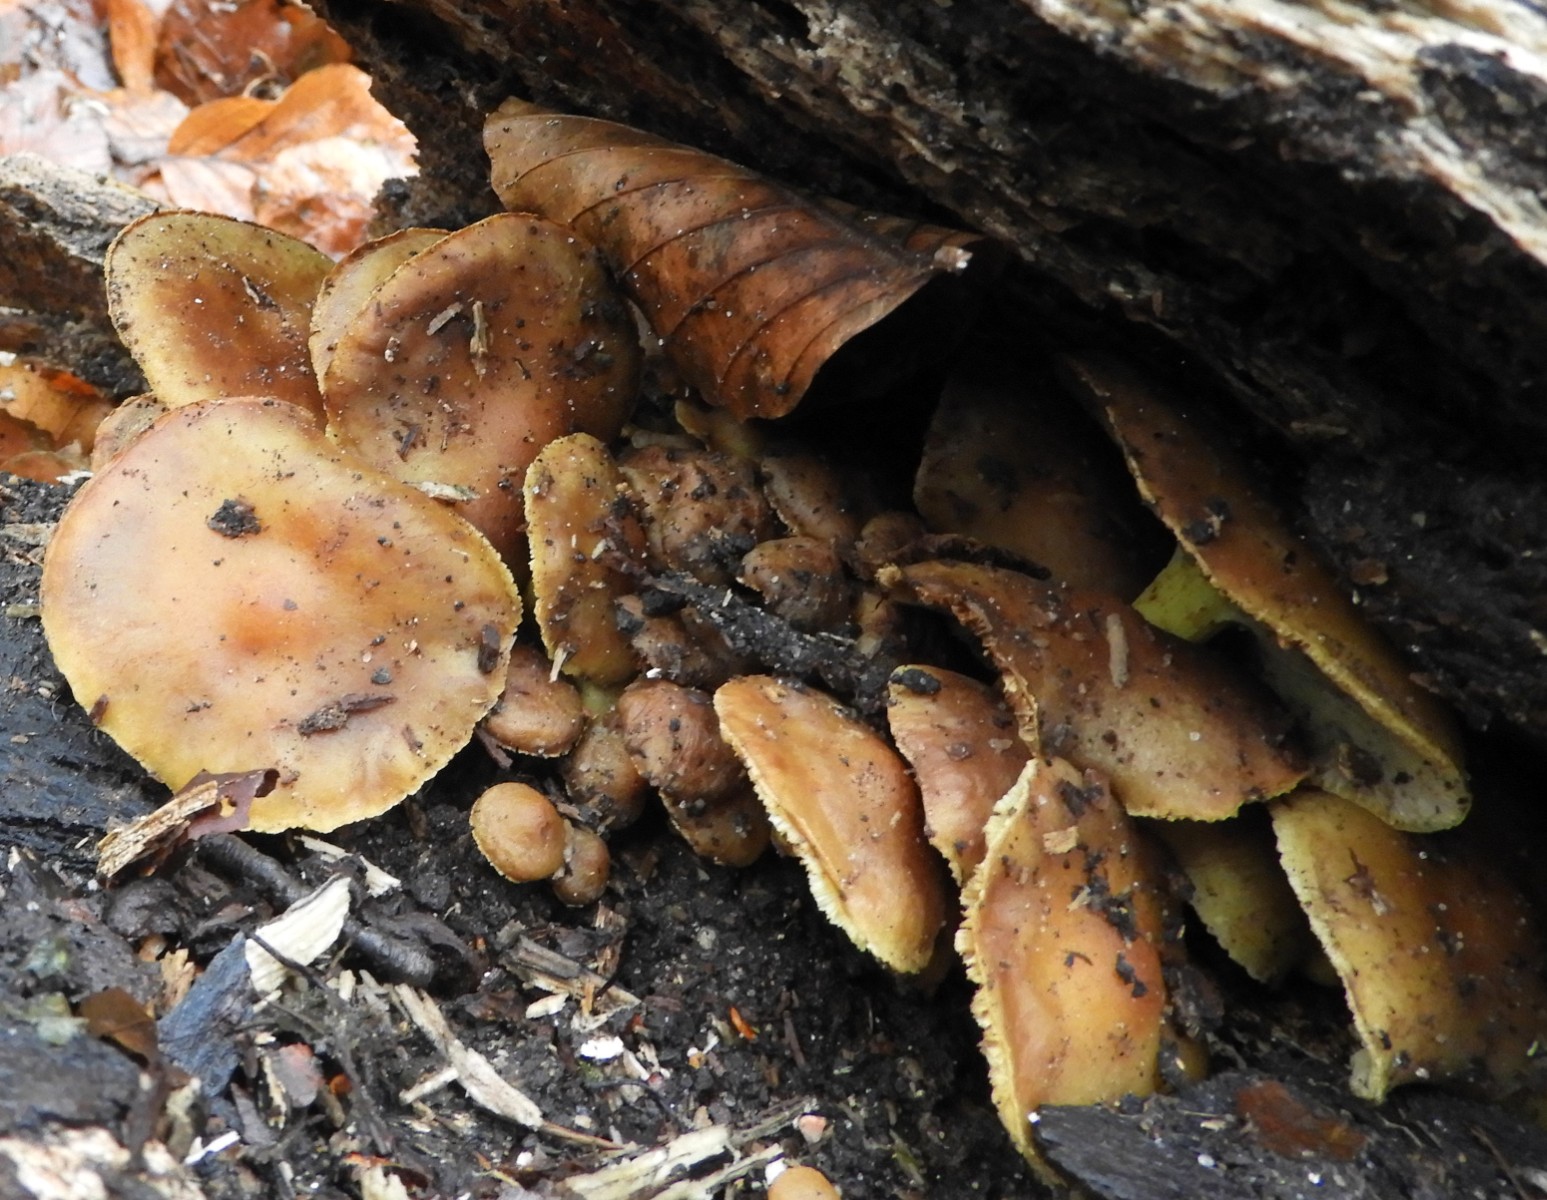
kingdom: Fungi
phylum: Basidiomycota
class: Agaricomycetes
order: Agaricales
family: Strophariaceae
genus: Hypholoma
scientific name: Hypholoma fasciculare
